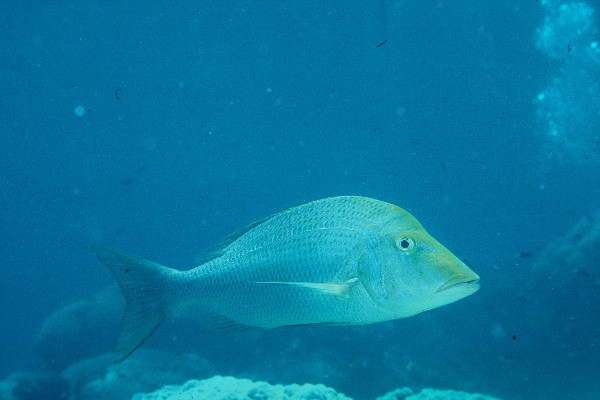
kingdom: Animalia
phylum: Chordata
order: Perciformes
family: Lethrinidae
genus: Lethrinus
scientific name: Lethrinus nebulosus
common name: Spangled emperor
